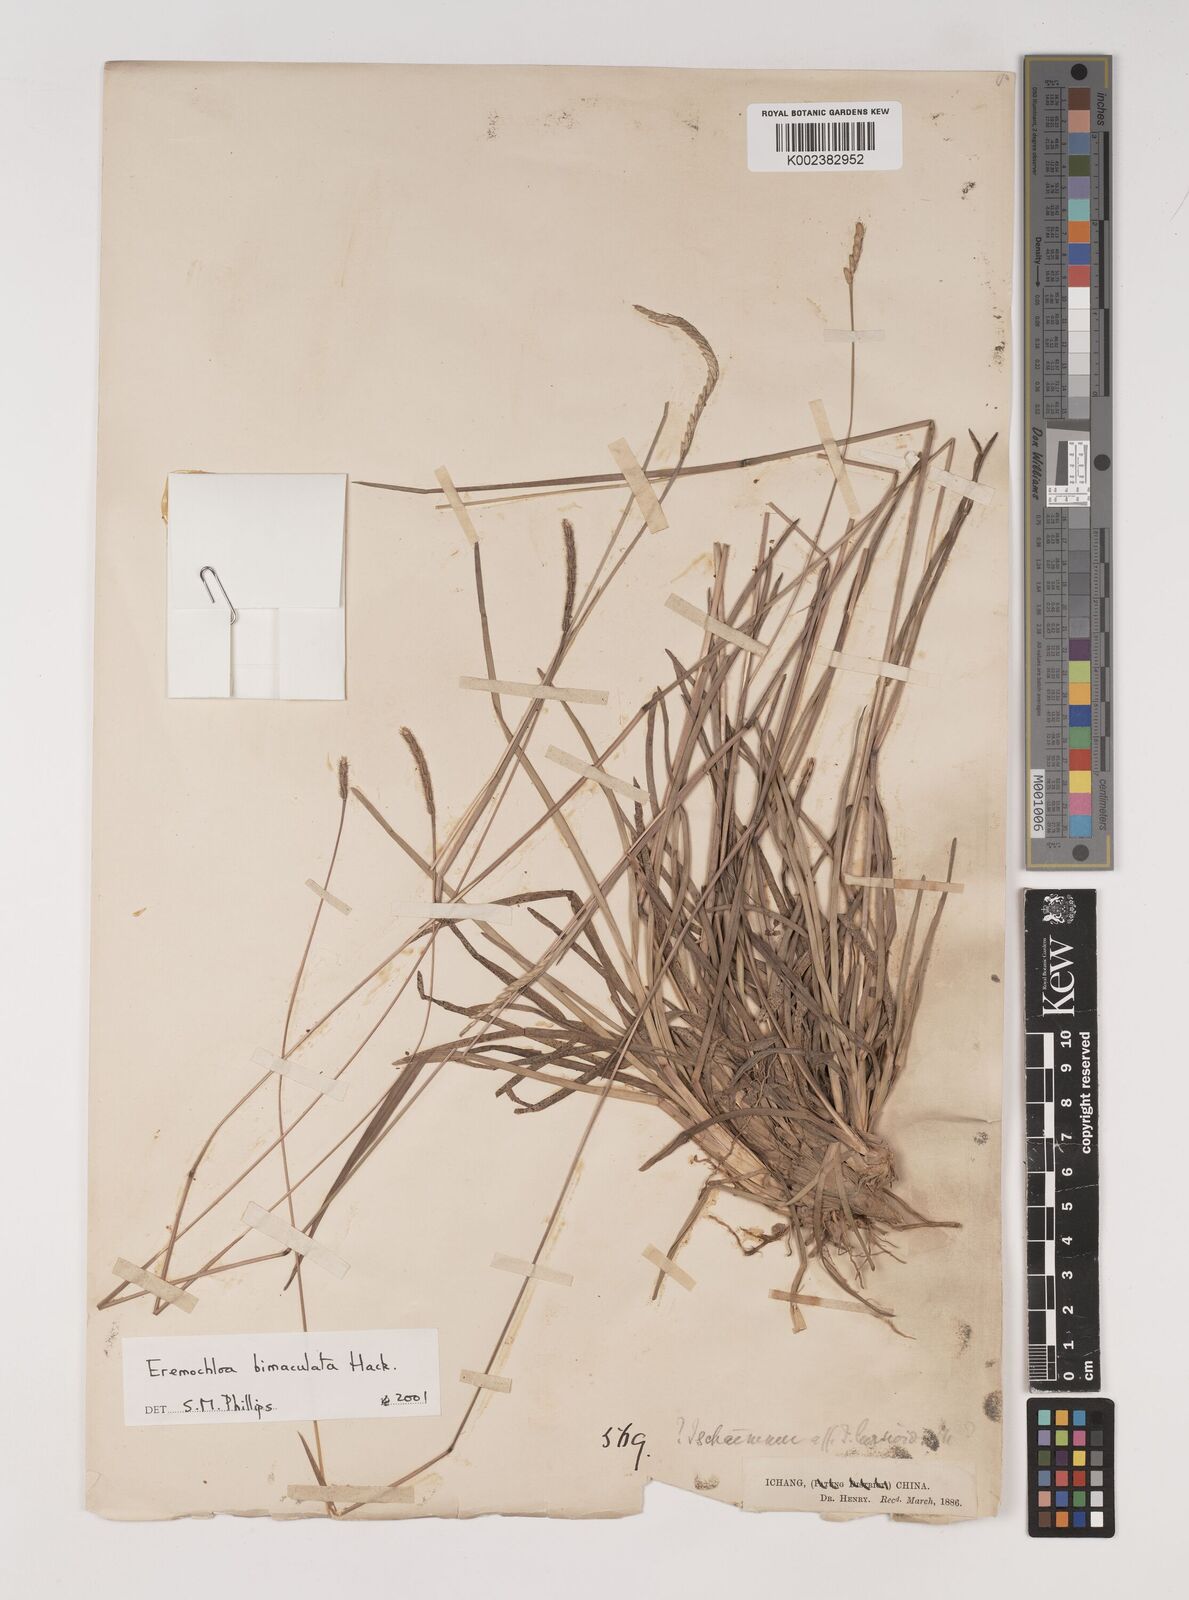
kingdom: Plantae
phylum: Tracheophyta
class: Liliopsida
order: Poales
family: Poaceae
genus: Eremochloa
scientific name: Eremochloa bimaculata
